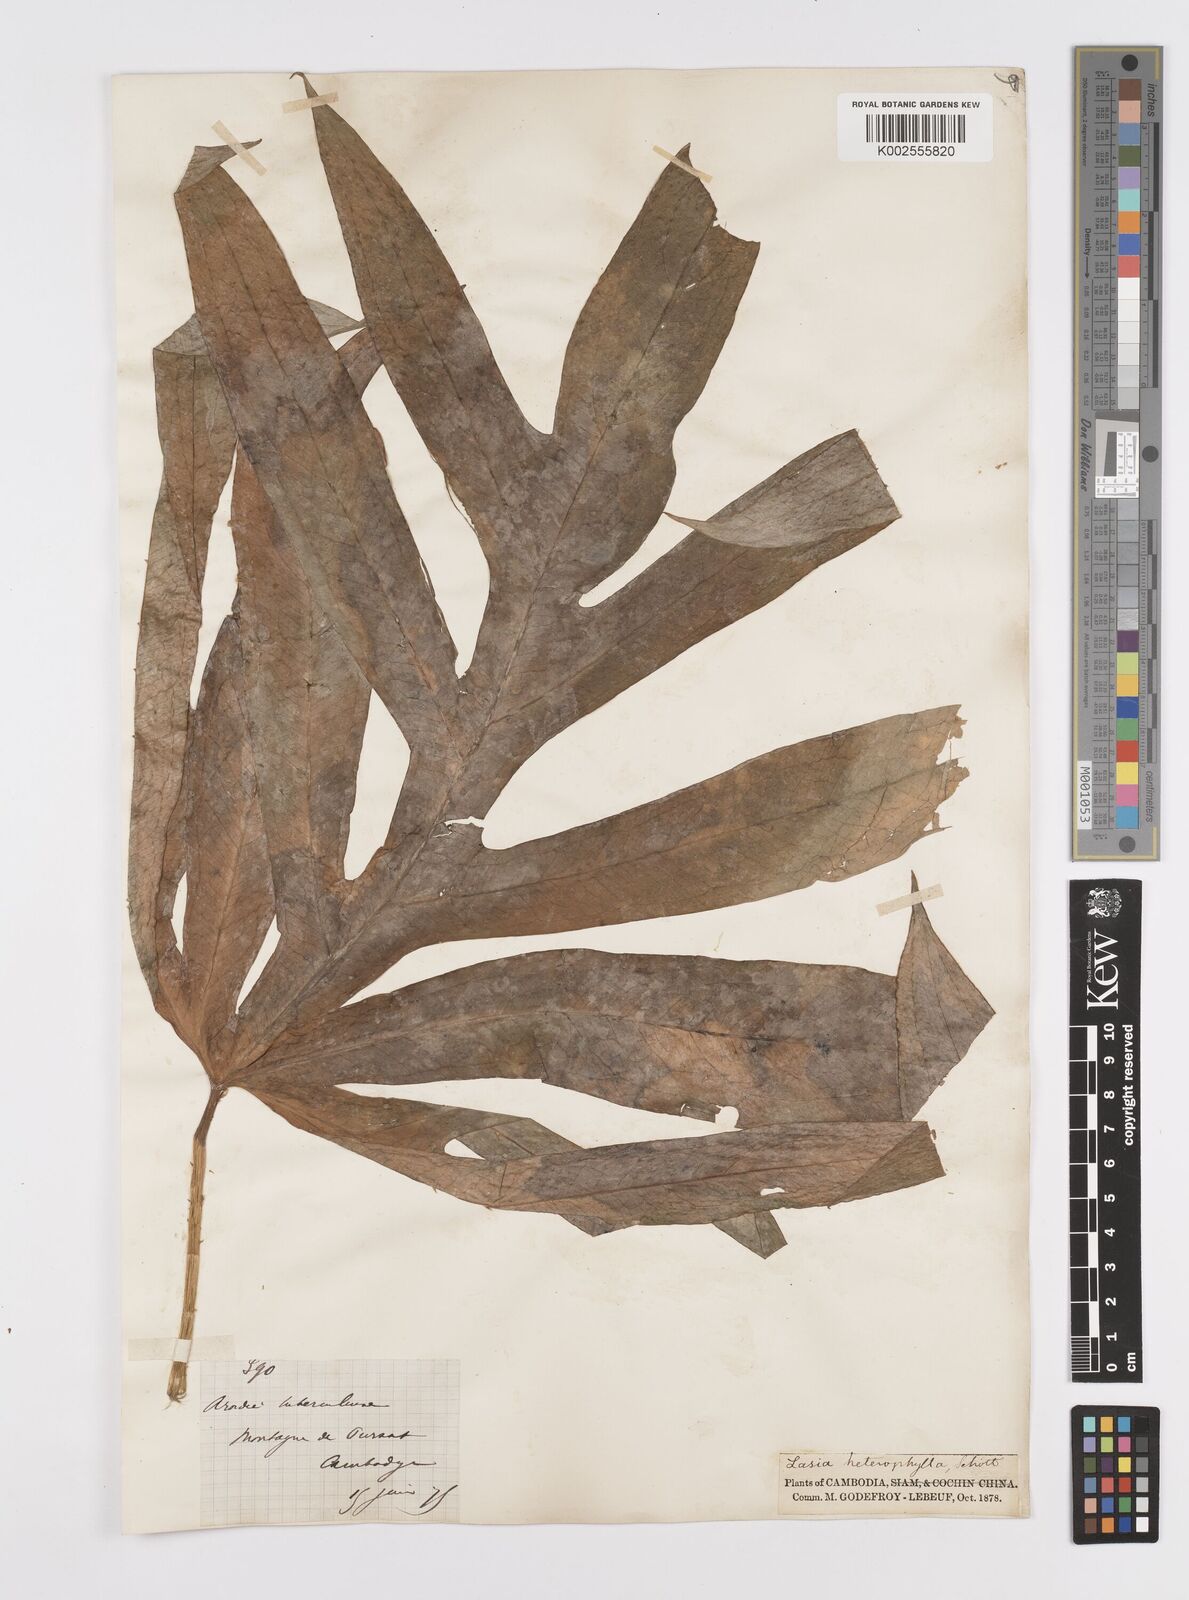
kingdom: Plantae
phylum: Tracheophyta
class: Liliopsida
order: Alismatales
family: Araceae
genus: Lasia
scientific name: Lasia spinosa
